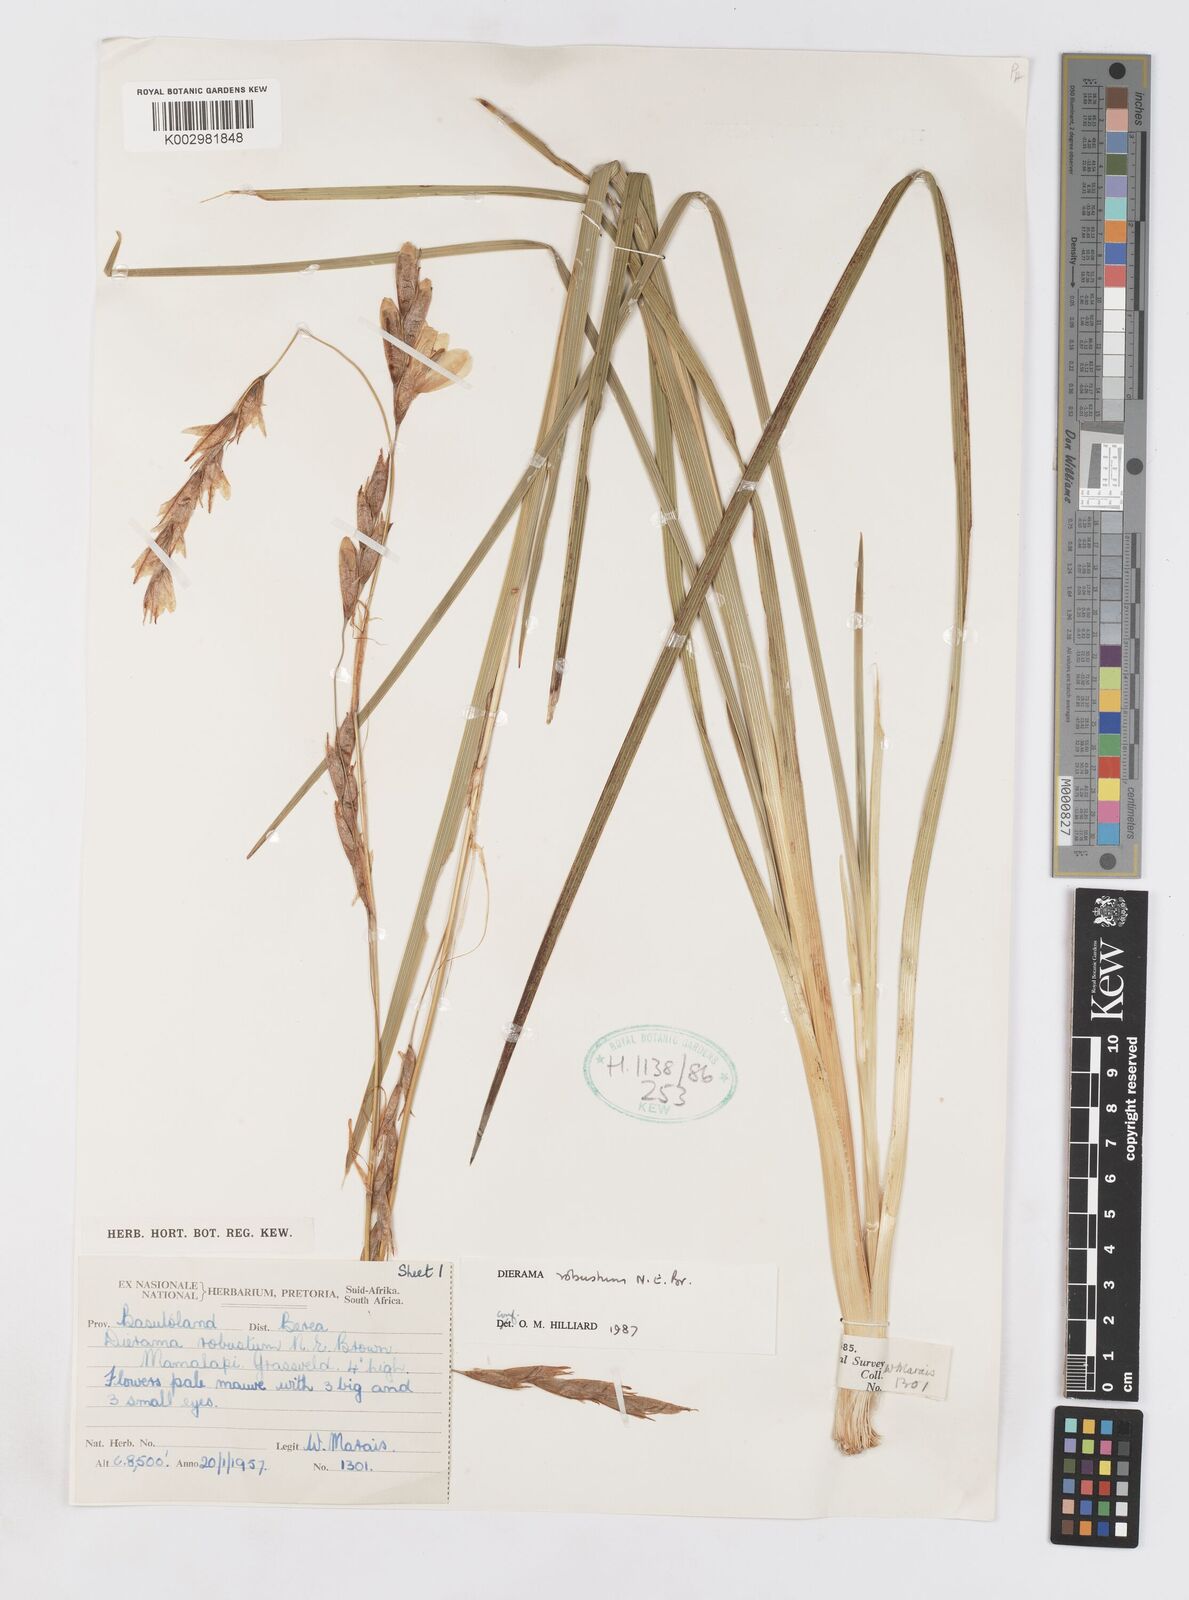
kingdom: Plantae
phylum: Tracheophyta
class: Liliopsida
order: Asparagales
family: Iridaceae
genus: Dierama
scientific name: Dierama robustum
